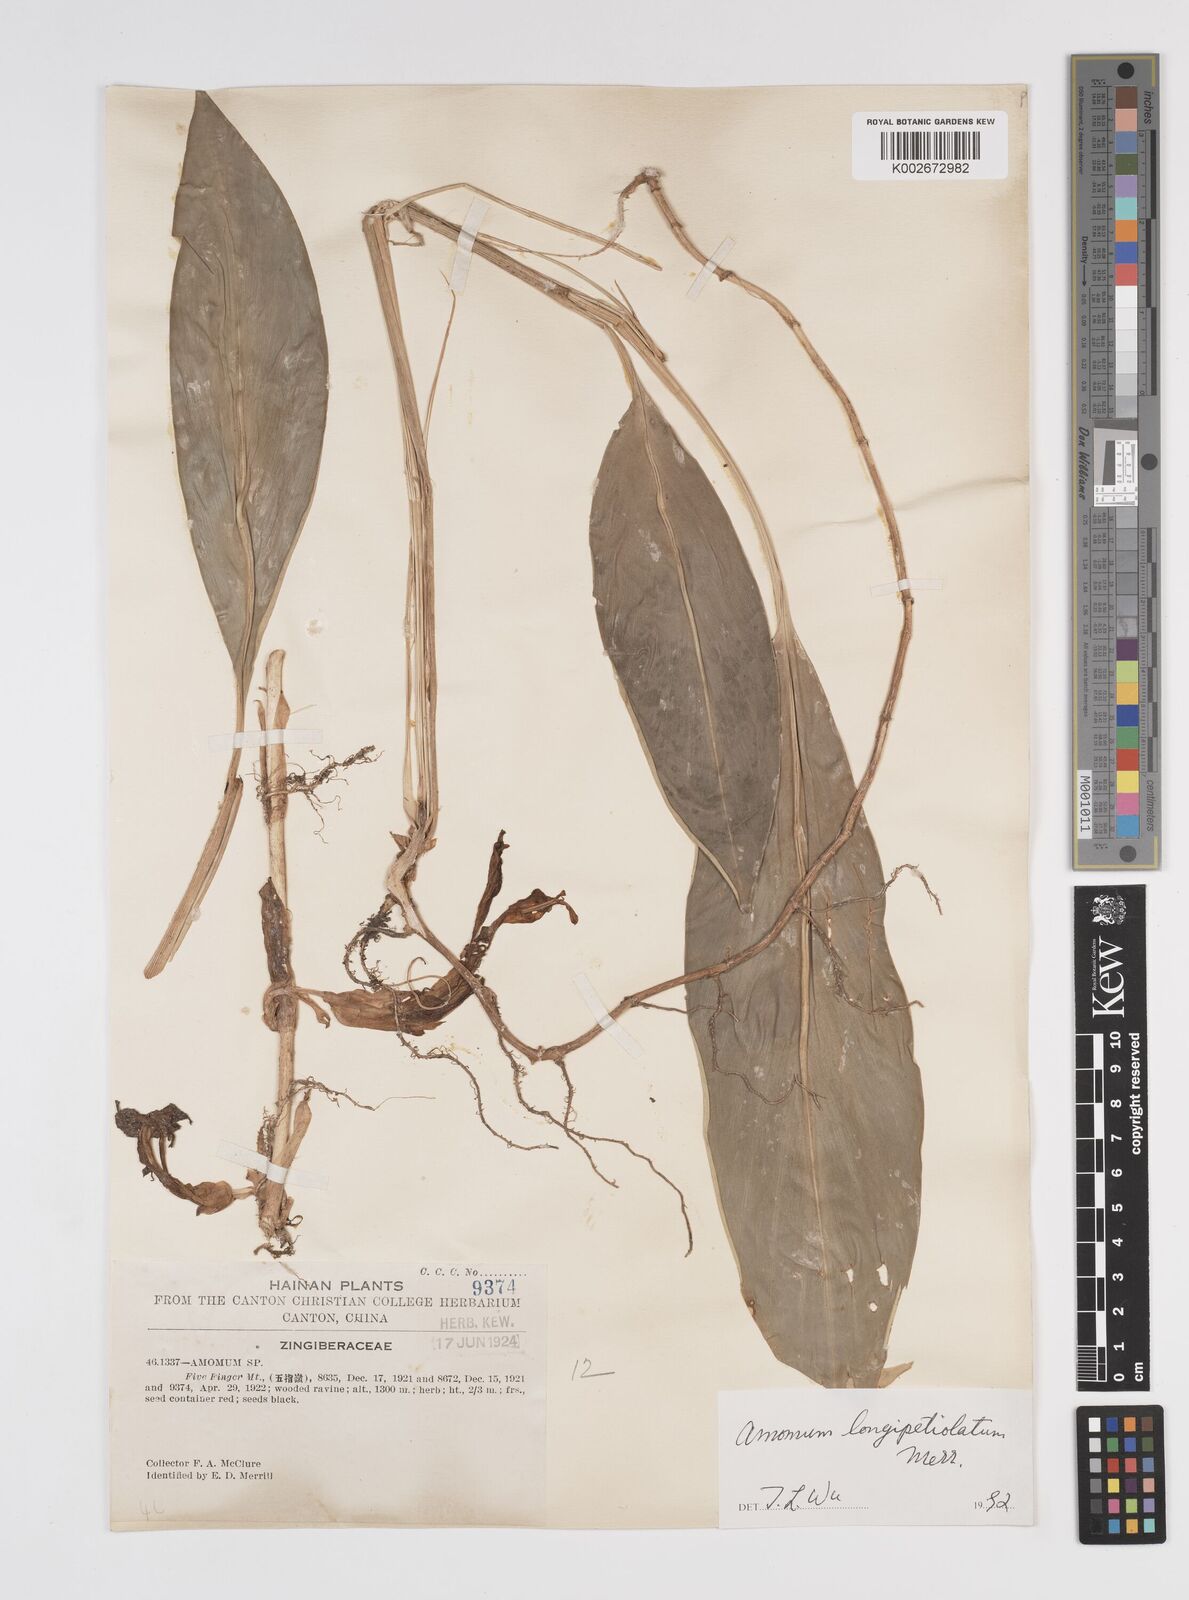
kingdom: Plantae
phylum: Tracheophyta
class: Liliopsida
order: Zingiberales
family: Zingiberaceae
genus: Amomum
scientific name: Amomum longipetiolatum
